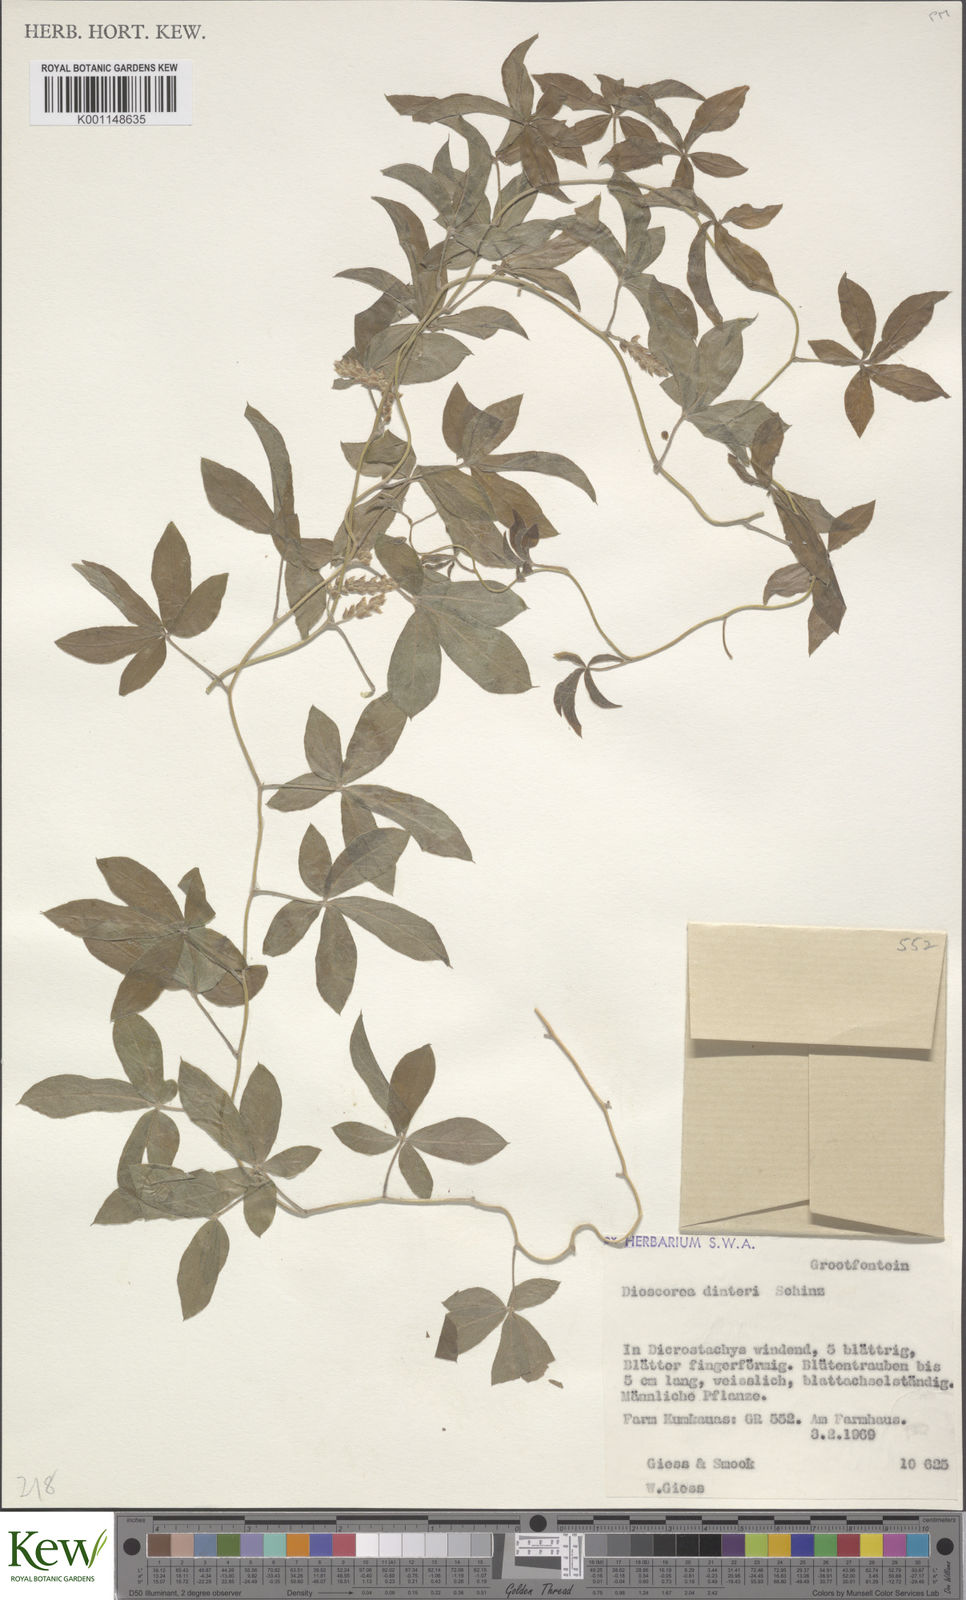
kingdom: Plantae
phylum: Tracheophyta
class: Liliopsida
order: Dioscoreales
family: Dioscoreaceae
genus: Dioscorea
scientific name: Dioscorea quartiniana
